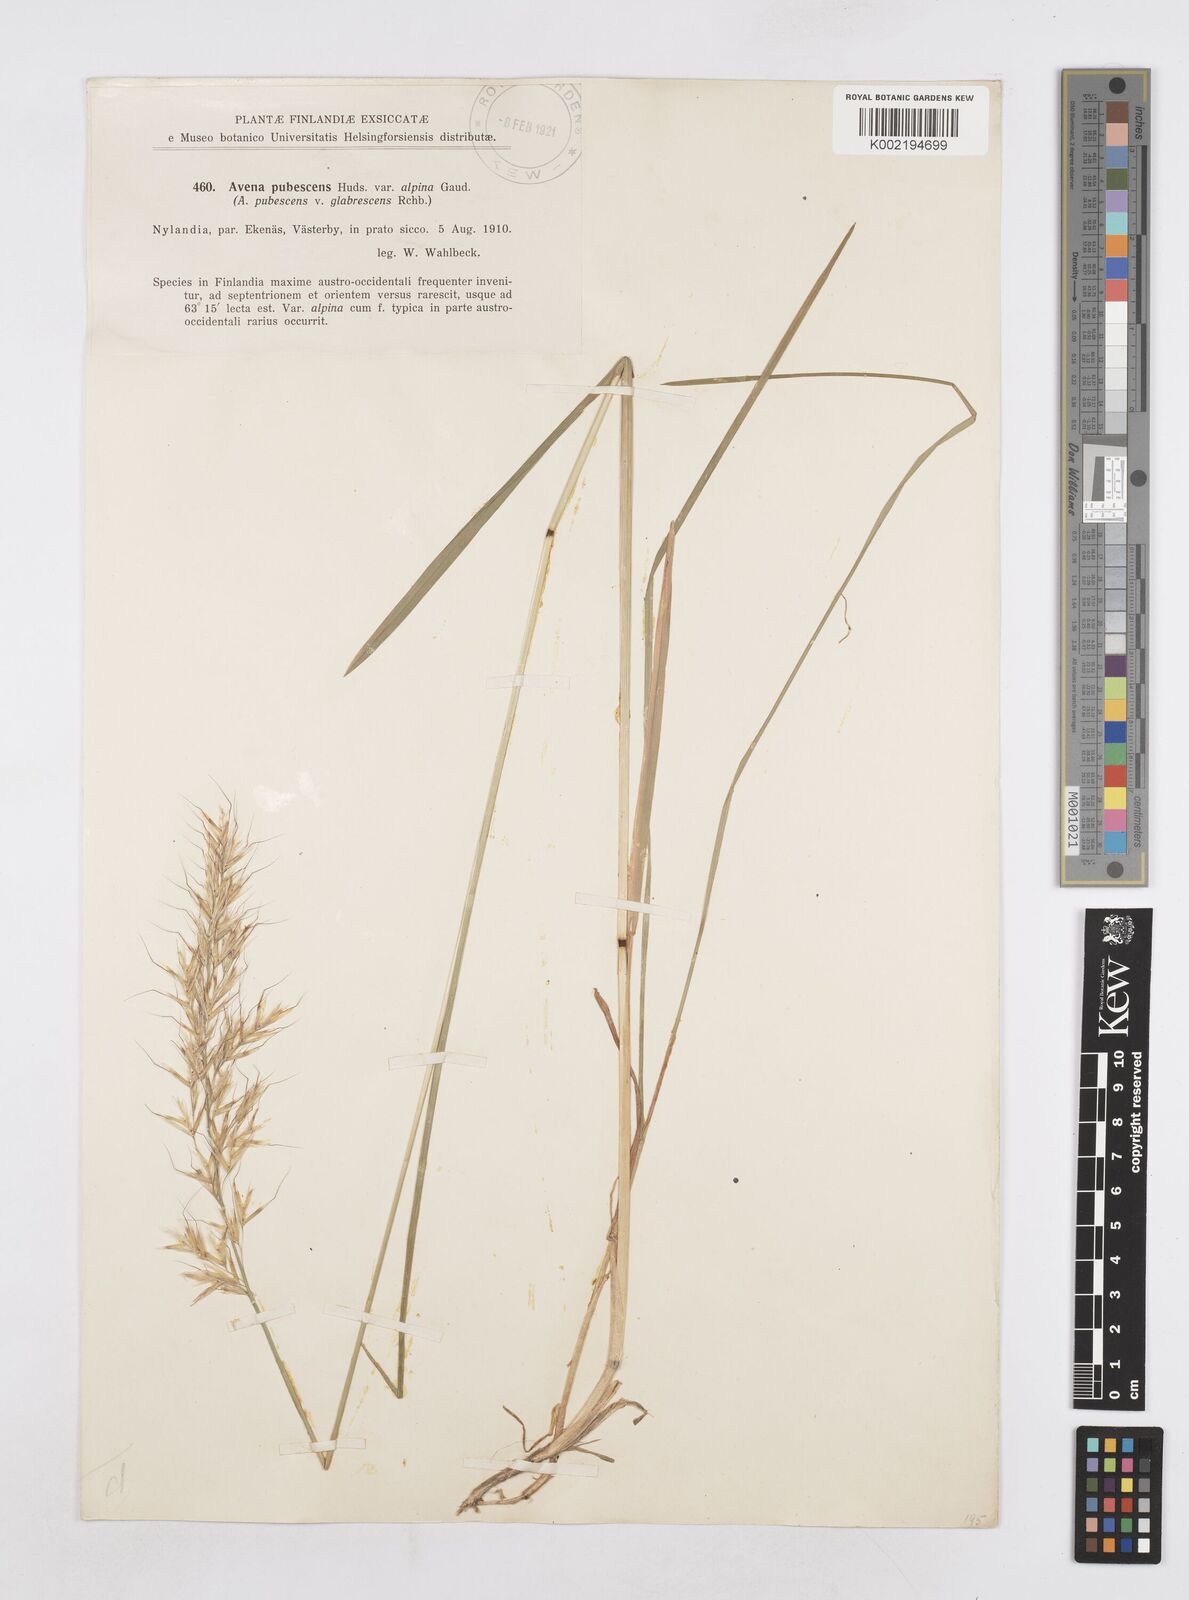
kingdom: Plantae
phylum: Tracheophyta
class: Liliopsida
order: Poales
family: Poaceae
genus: Avenula
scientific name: Avenula pubescens
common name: Downy alpine oatgrass
